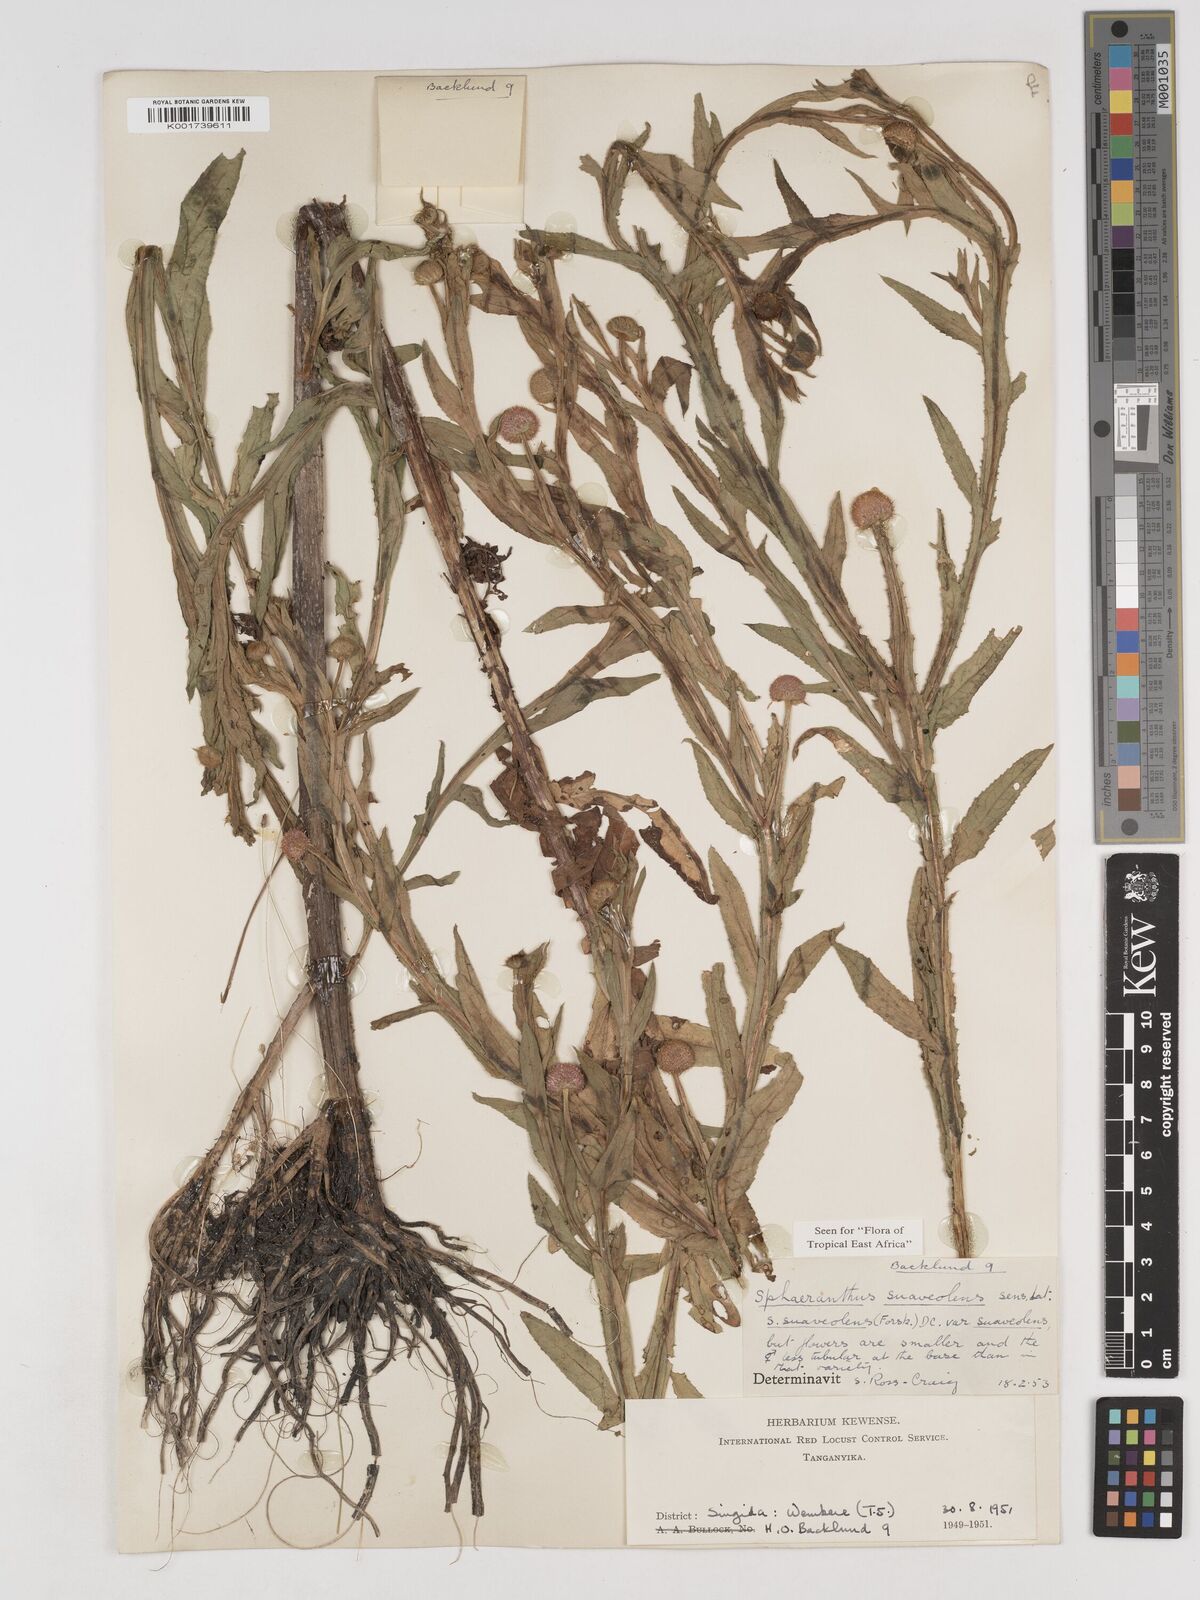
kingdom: Plantae
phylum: Tracheophyta
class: Magnoliopsida
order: Asterales
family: Asteraceae
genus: Sphaeranthus
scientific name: Sphaeranthus suaveolens
